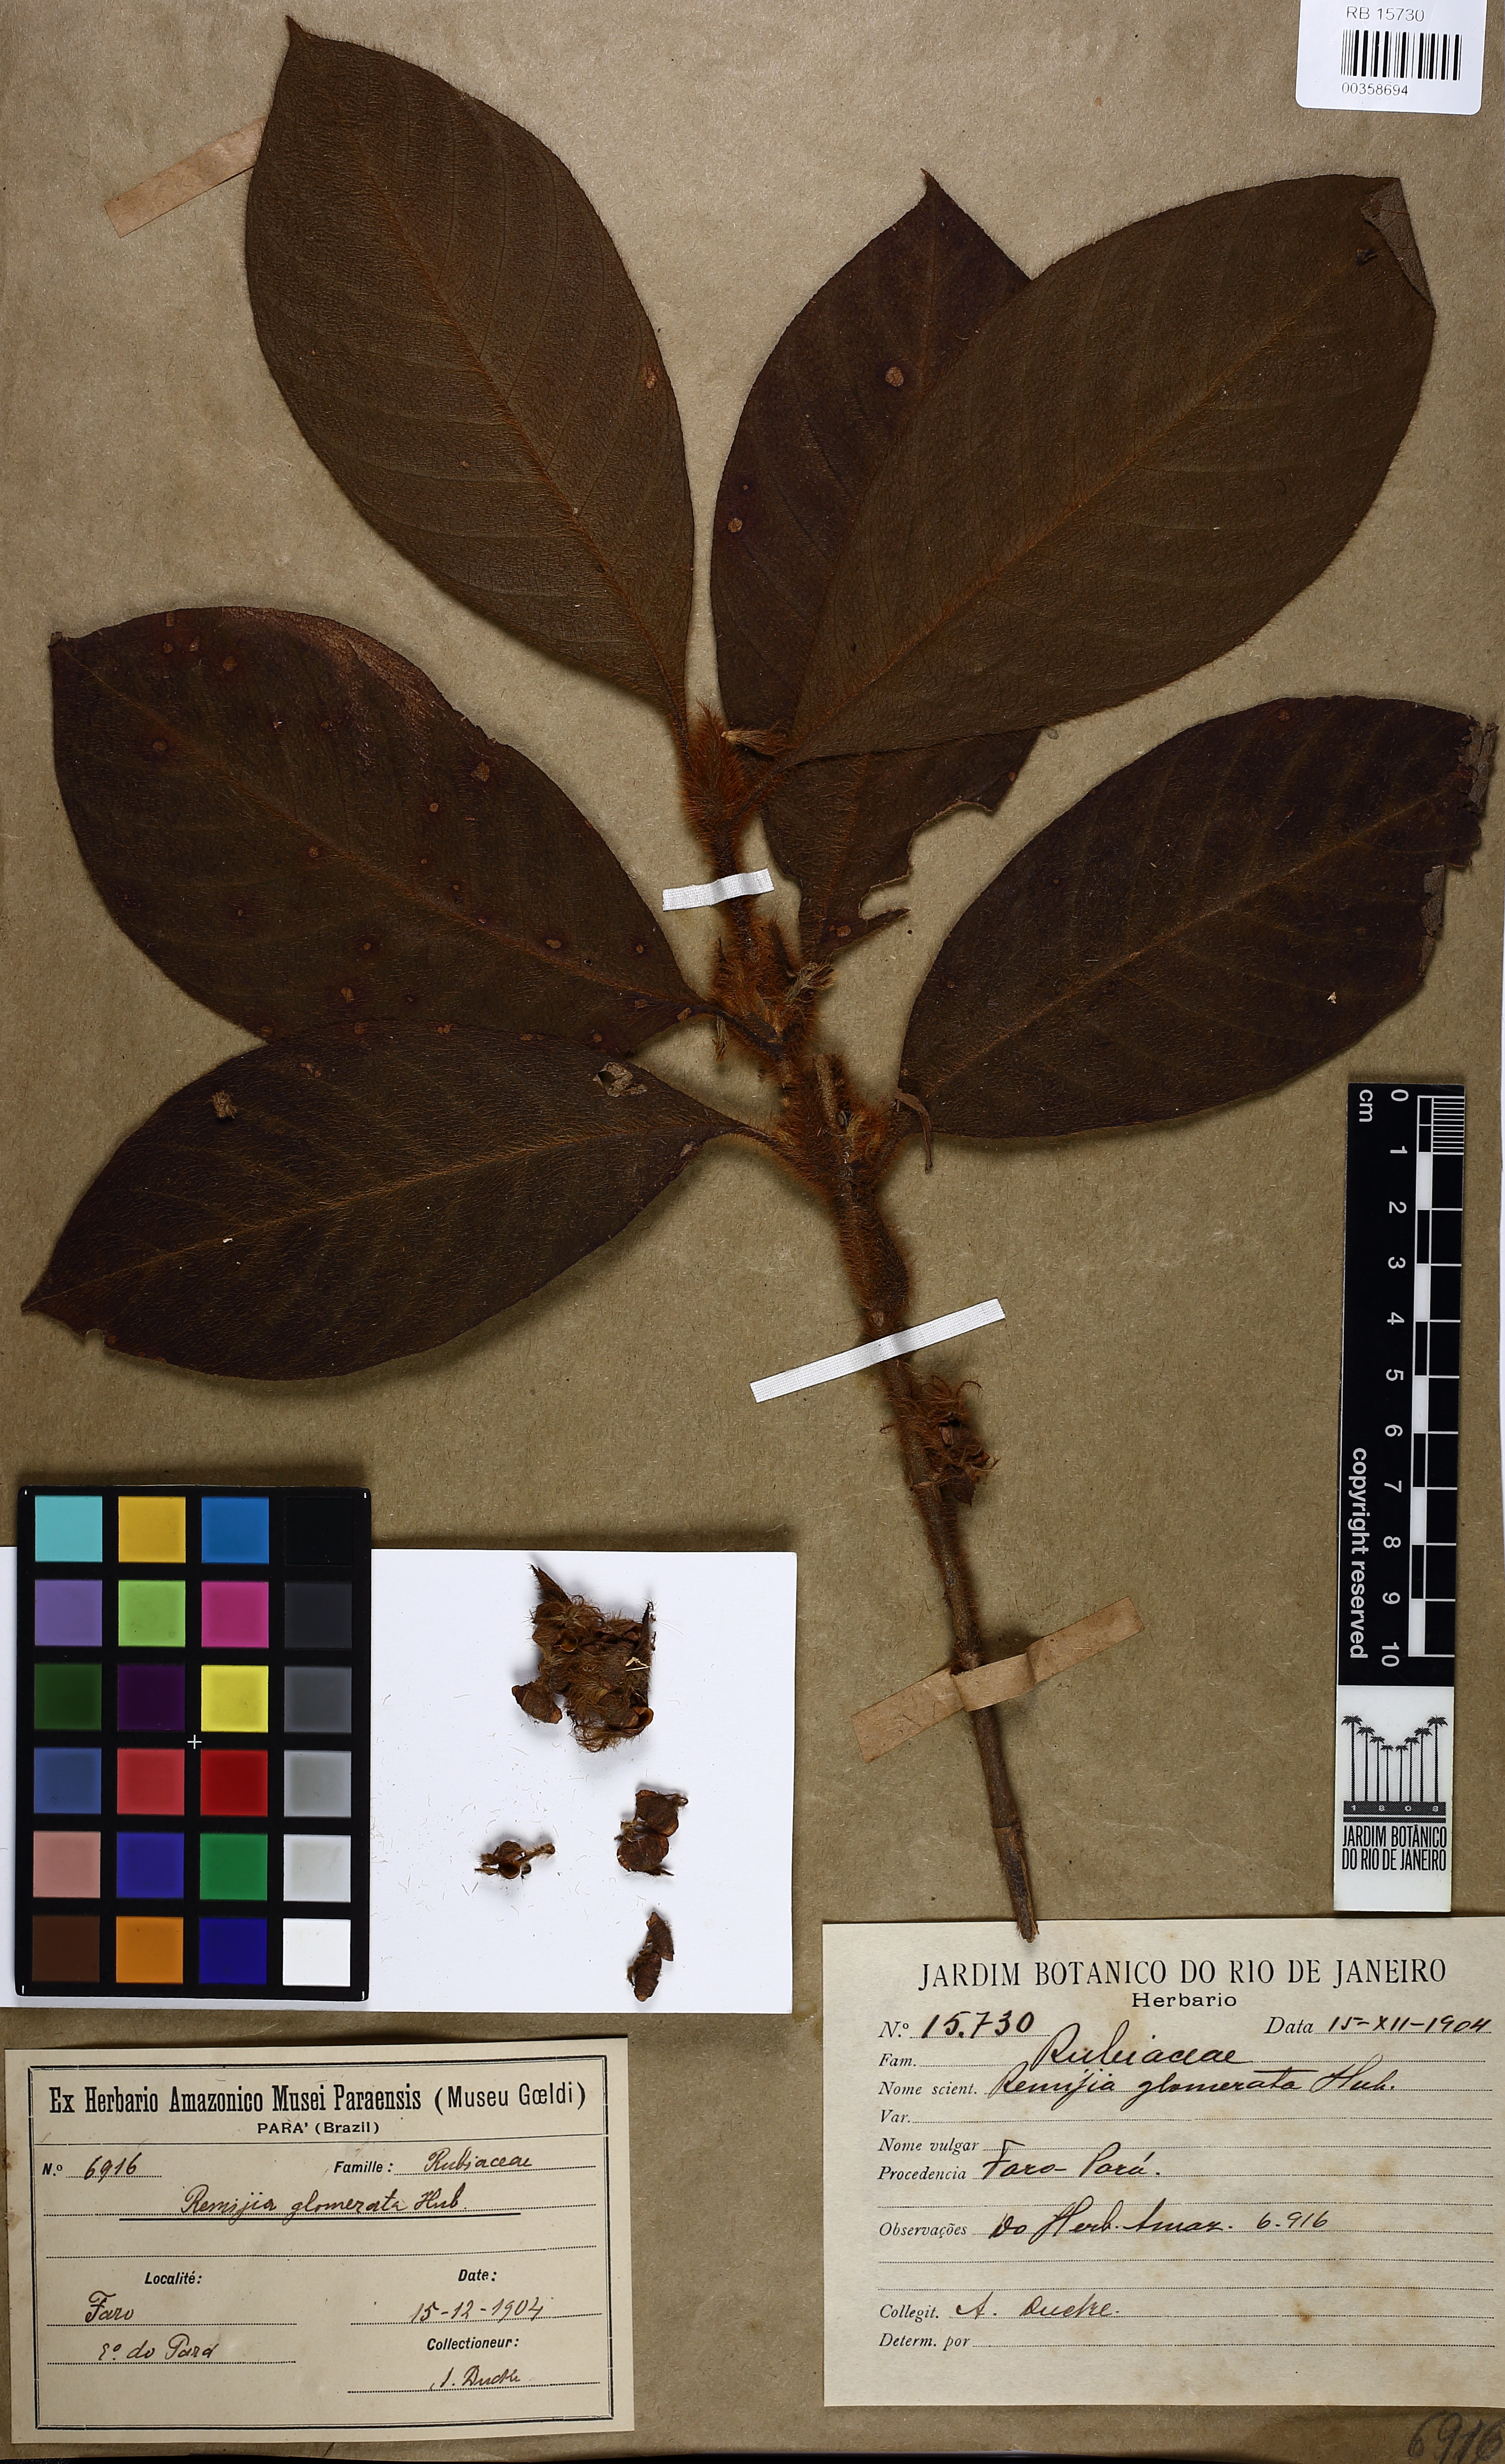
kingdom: Plantae
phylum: Tracheophyta
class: Magnoliopsida
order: Gentianales
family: Rubiaceae
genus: Remijia
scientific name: Remijia glomerata
